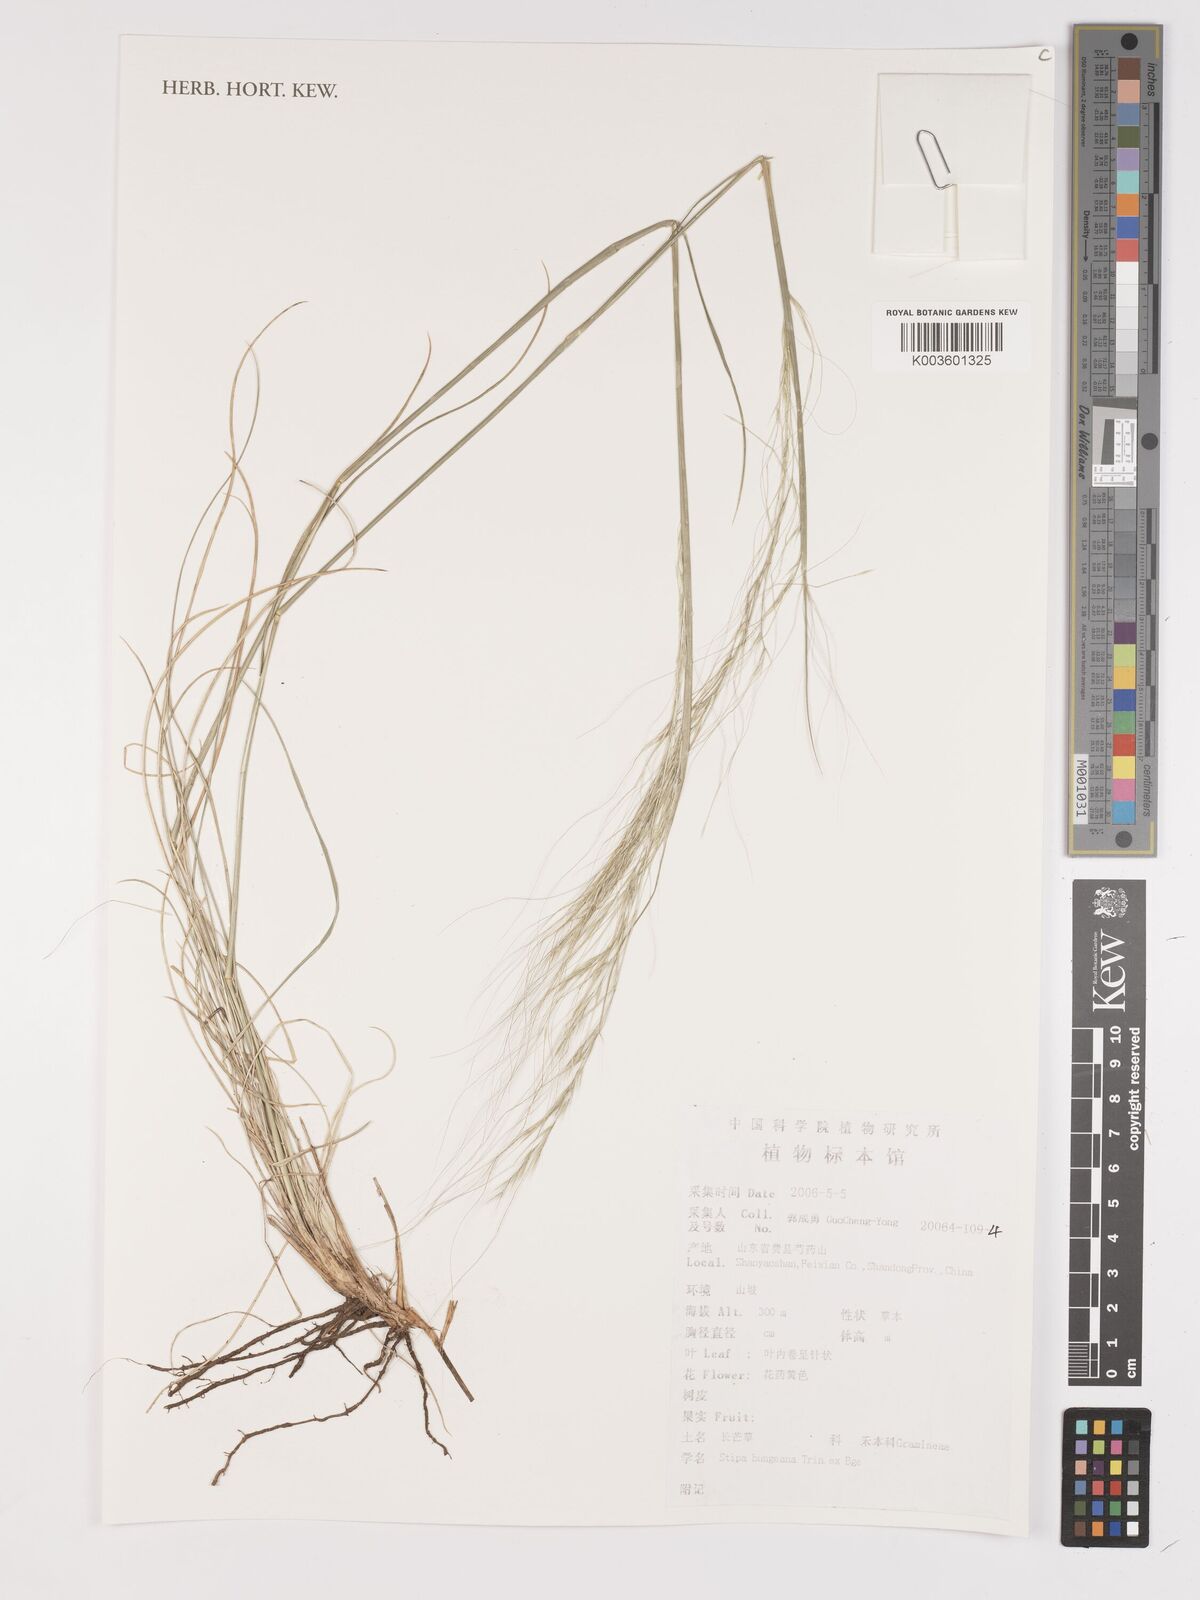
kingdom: Plantae
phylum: Tracheophyta
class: Liliopsida
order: Poales
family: Poaceae
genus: Stipa
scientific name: Stipa bungeana
